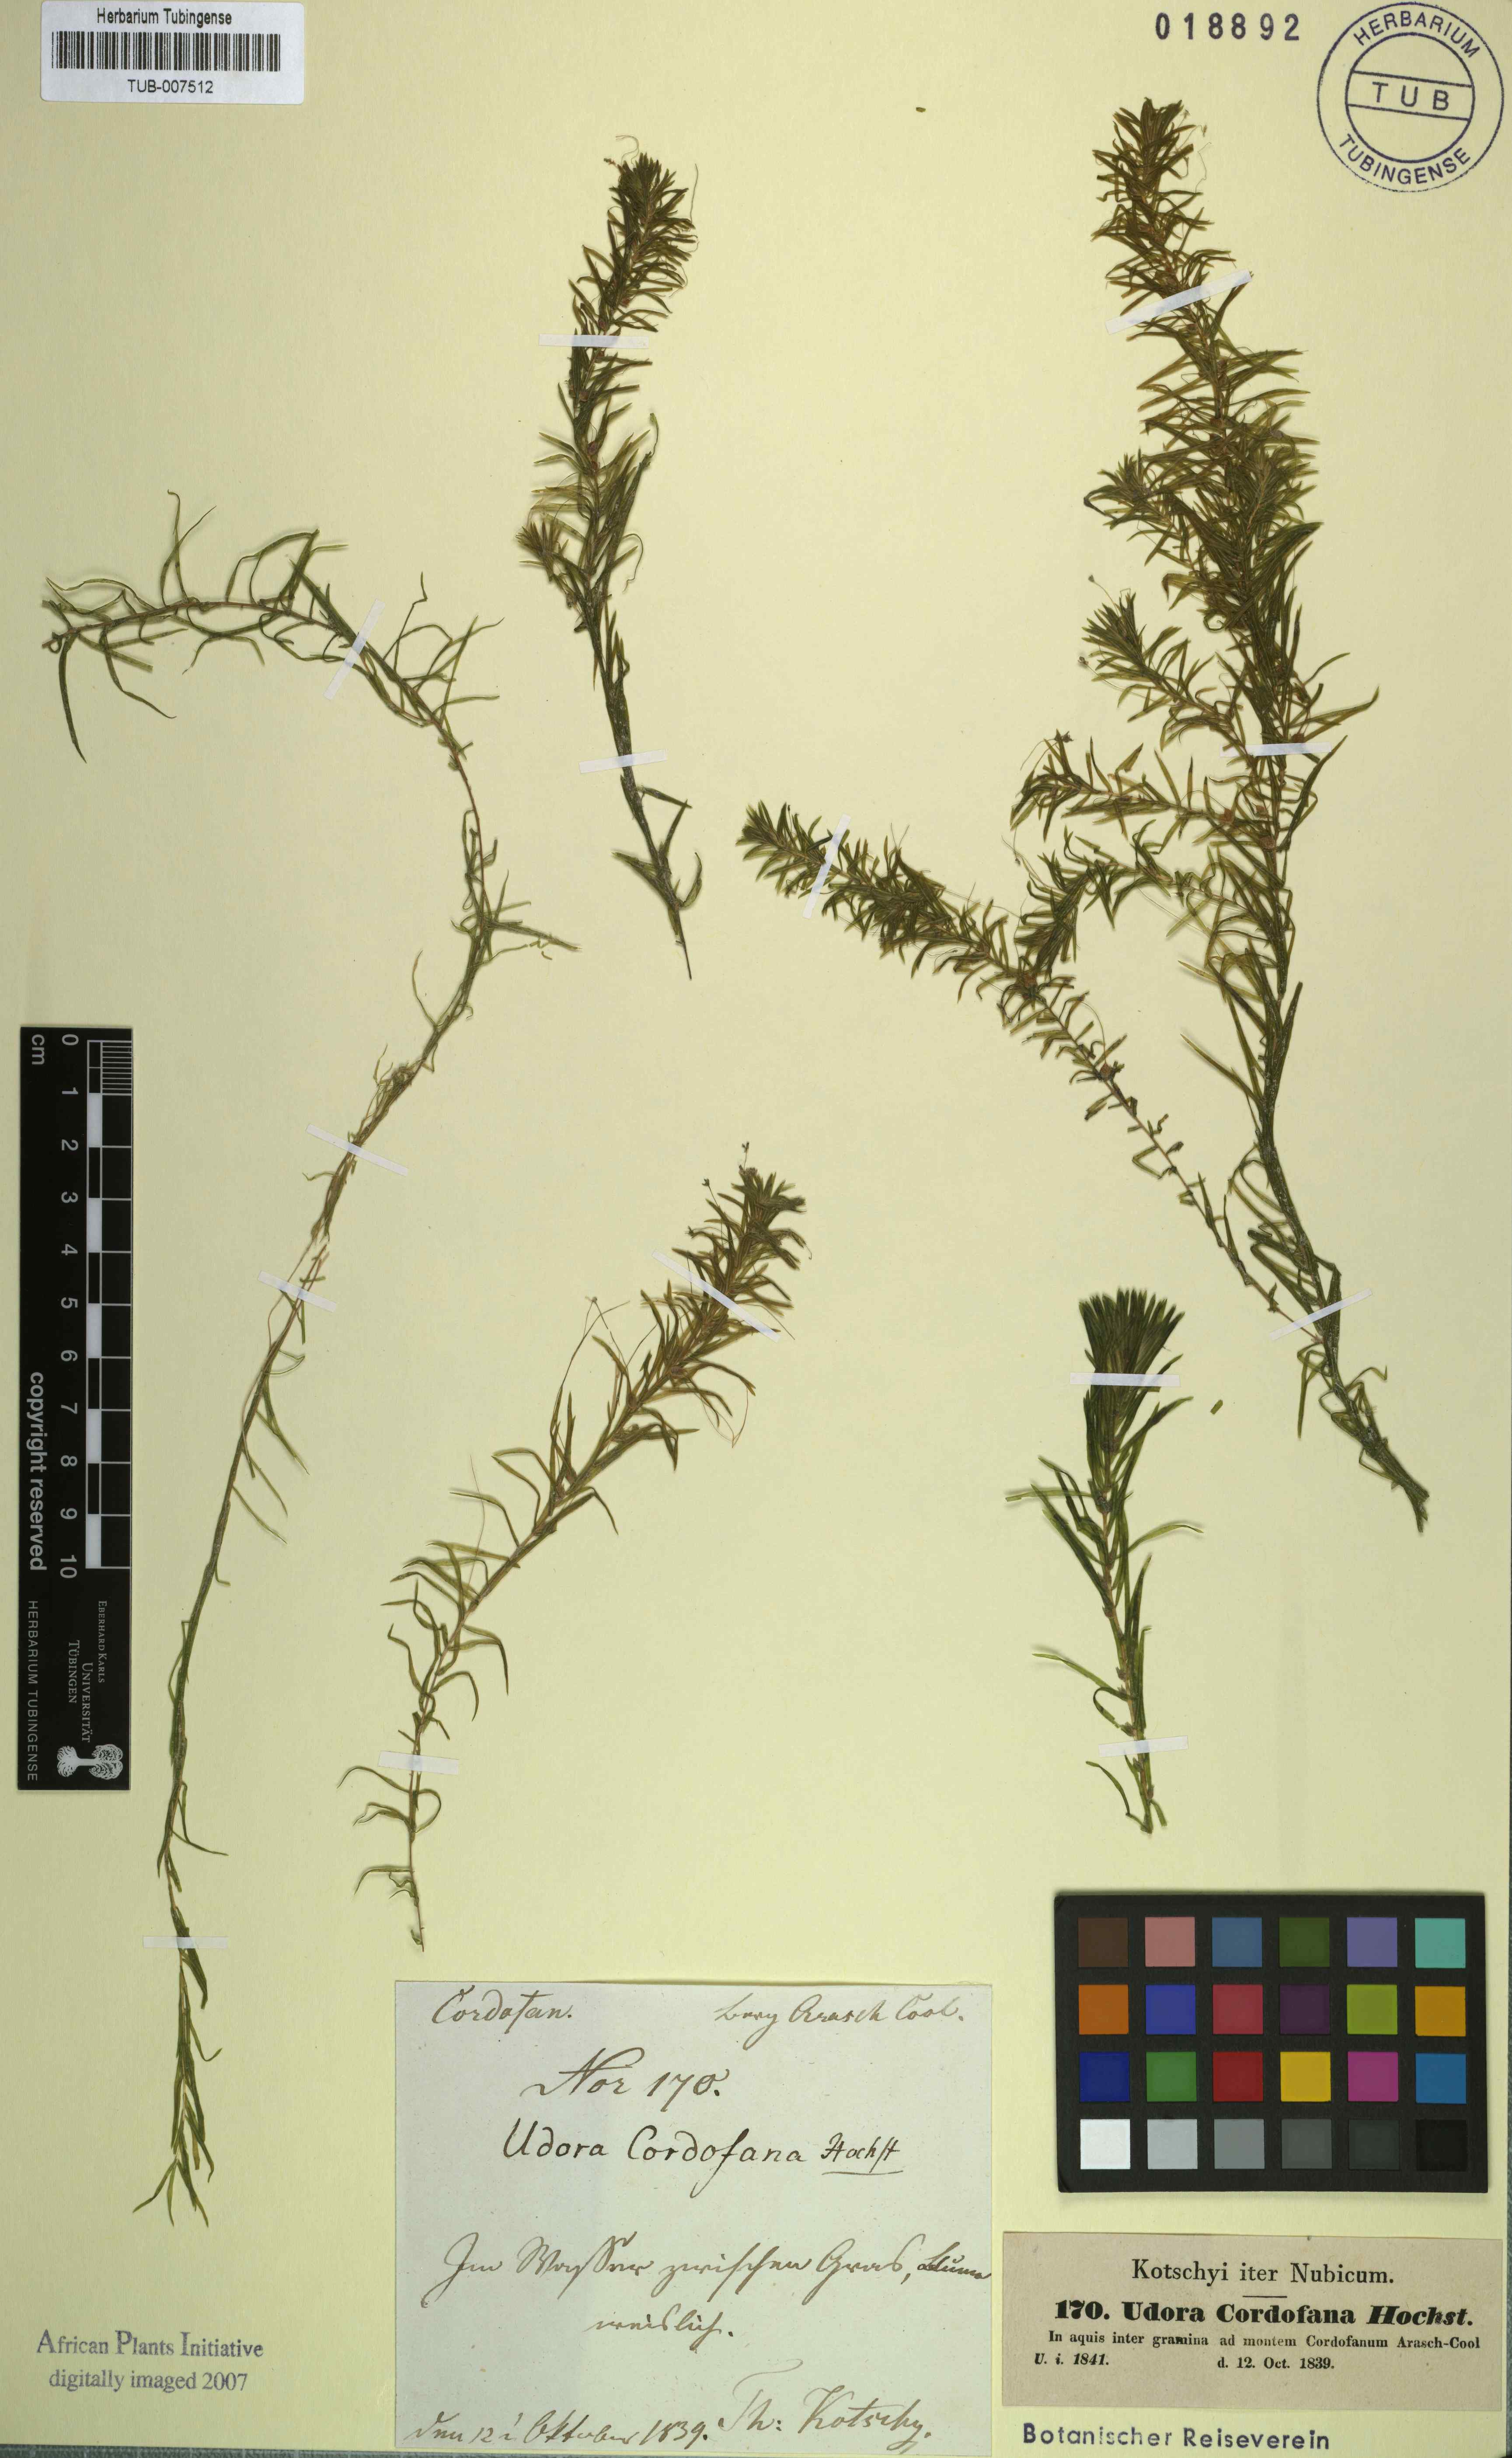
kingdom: Plantae
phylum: Tracheophyta
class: Liliopsida
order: Alismatales
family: Hydrocharitaceae
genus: Lagarosiphon
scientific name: Lagarosiphon cordofanus
